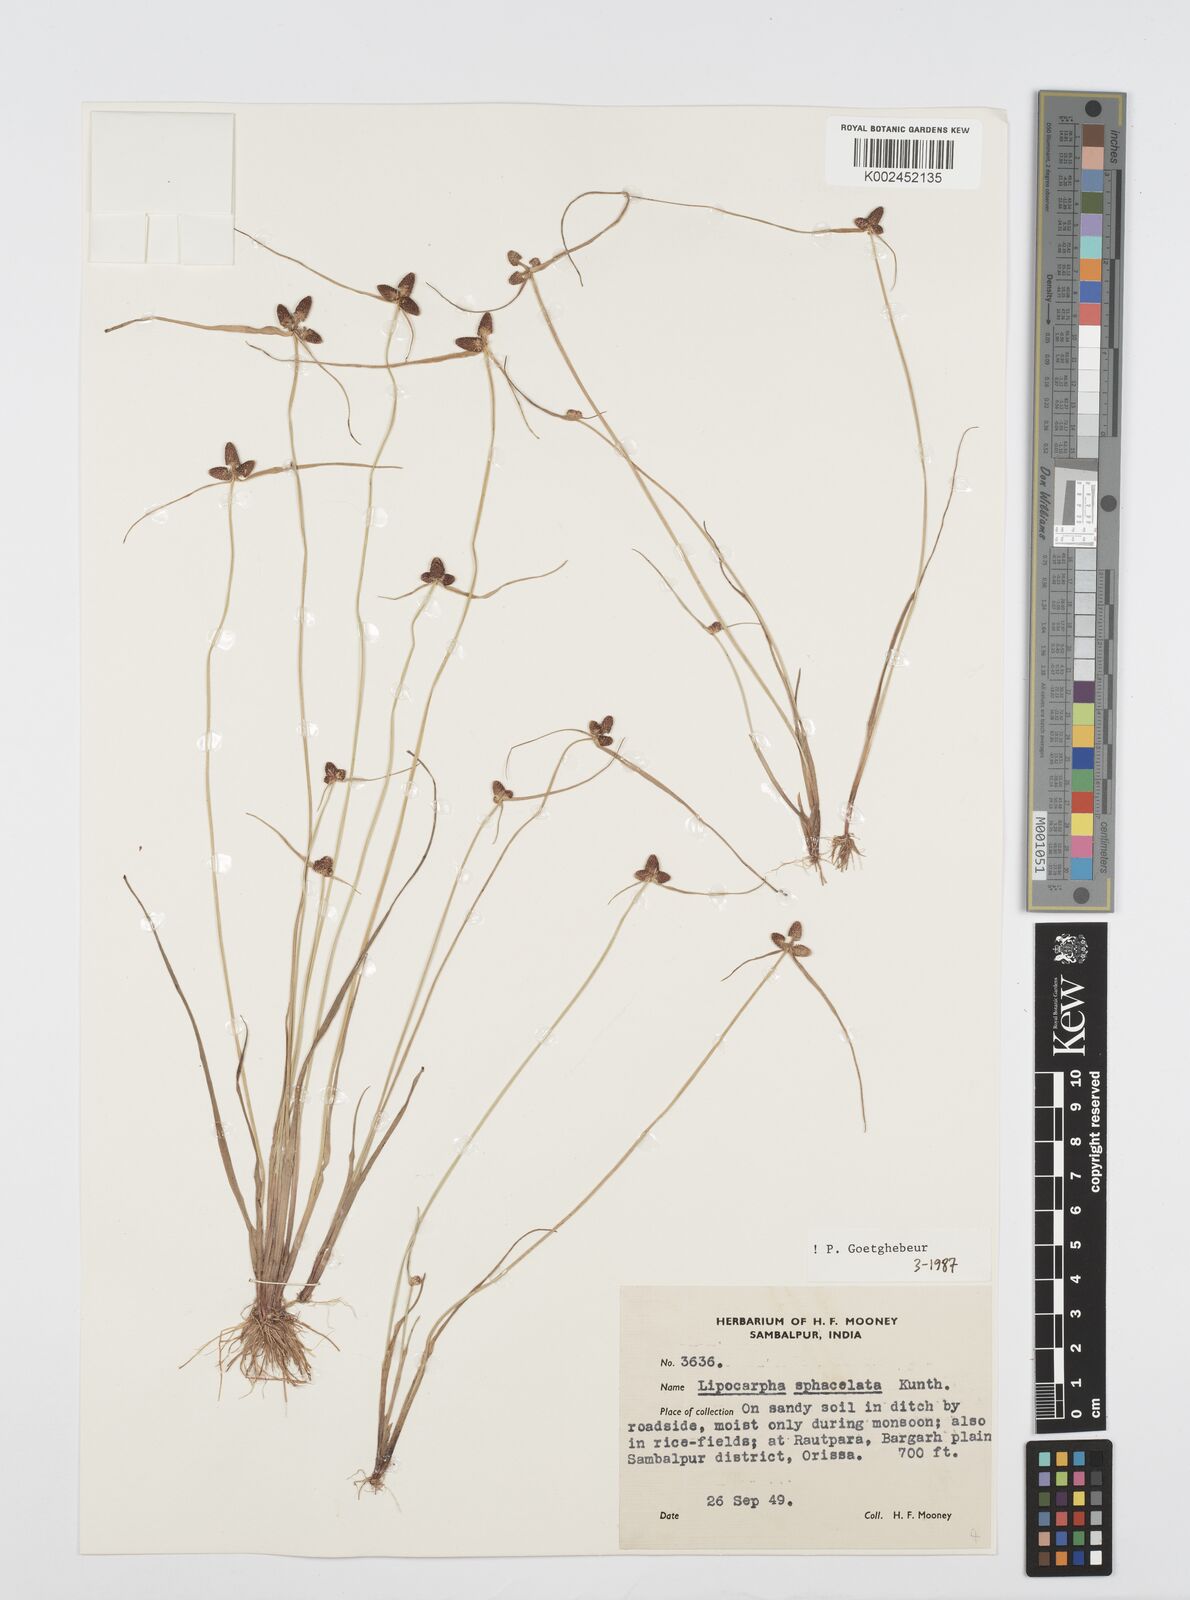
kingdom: Plantae
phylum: Tracheophyta
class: Liliopsida
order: Poales
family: Cyperaceae
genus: Cyperus
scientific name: Cyperus sphacelatus
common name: Roadside flatsedge
